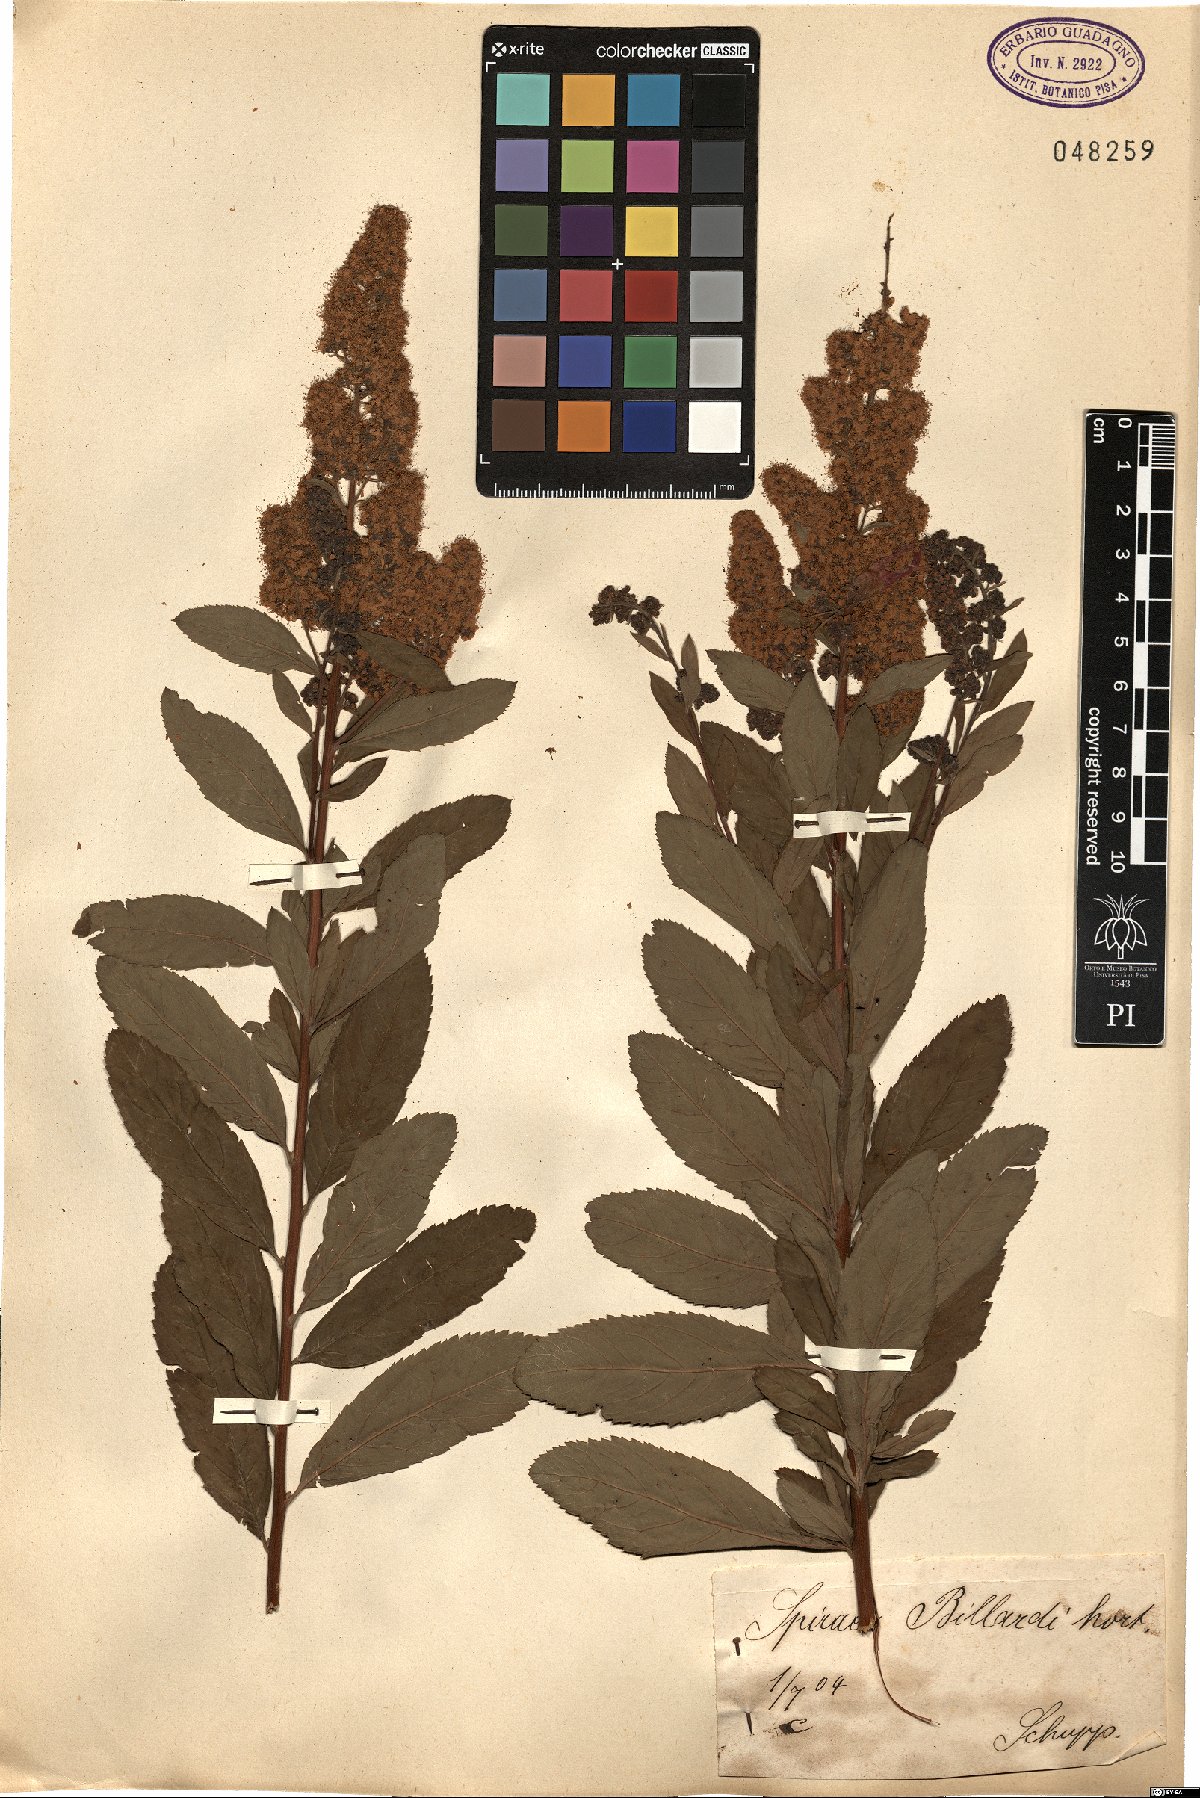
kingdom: Plantae
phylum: Tracheophyta
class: Magnoliopsida
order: Rosales
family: Rosaceae
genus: Spiraea
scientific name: Spiraea billardii
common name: Billard's bridewort
